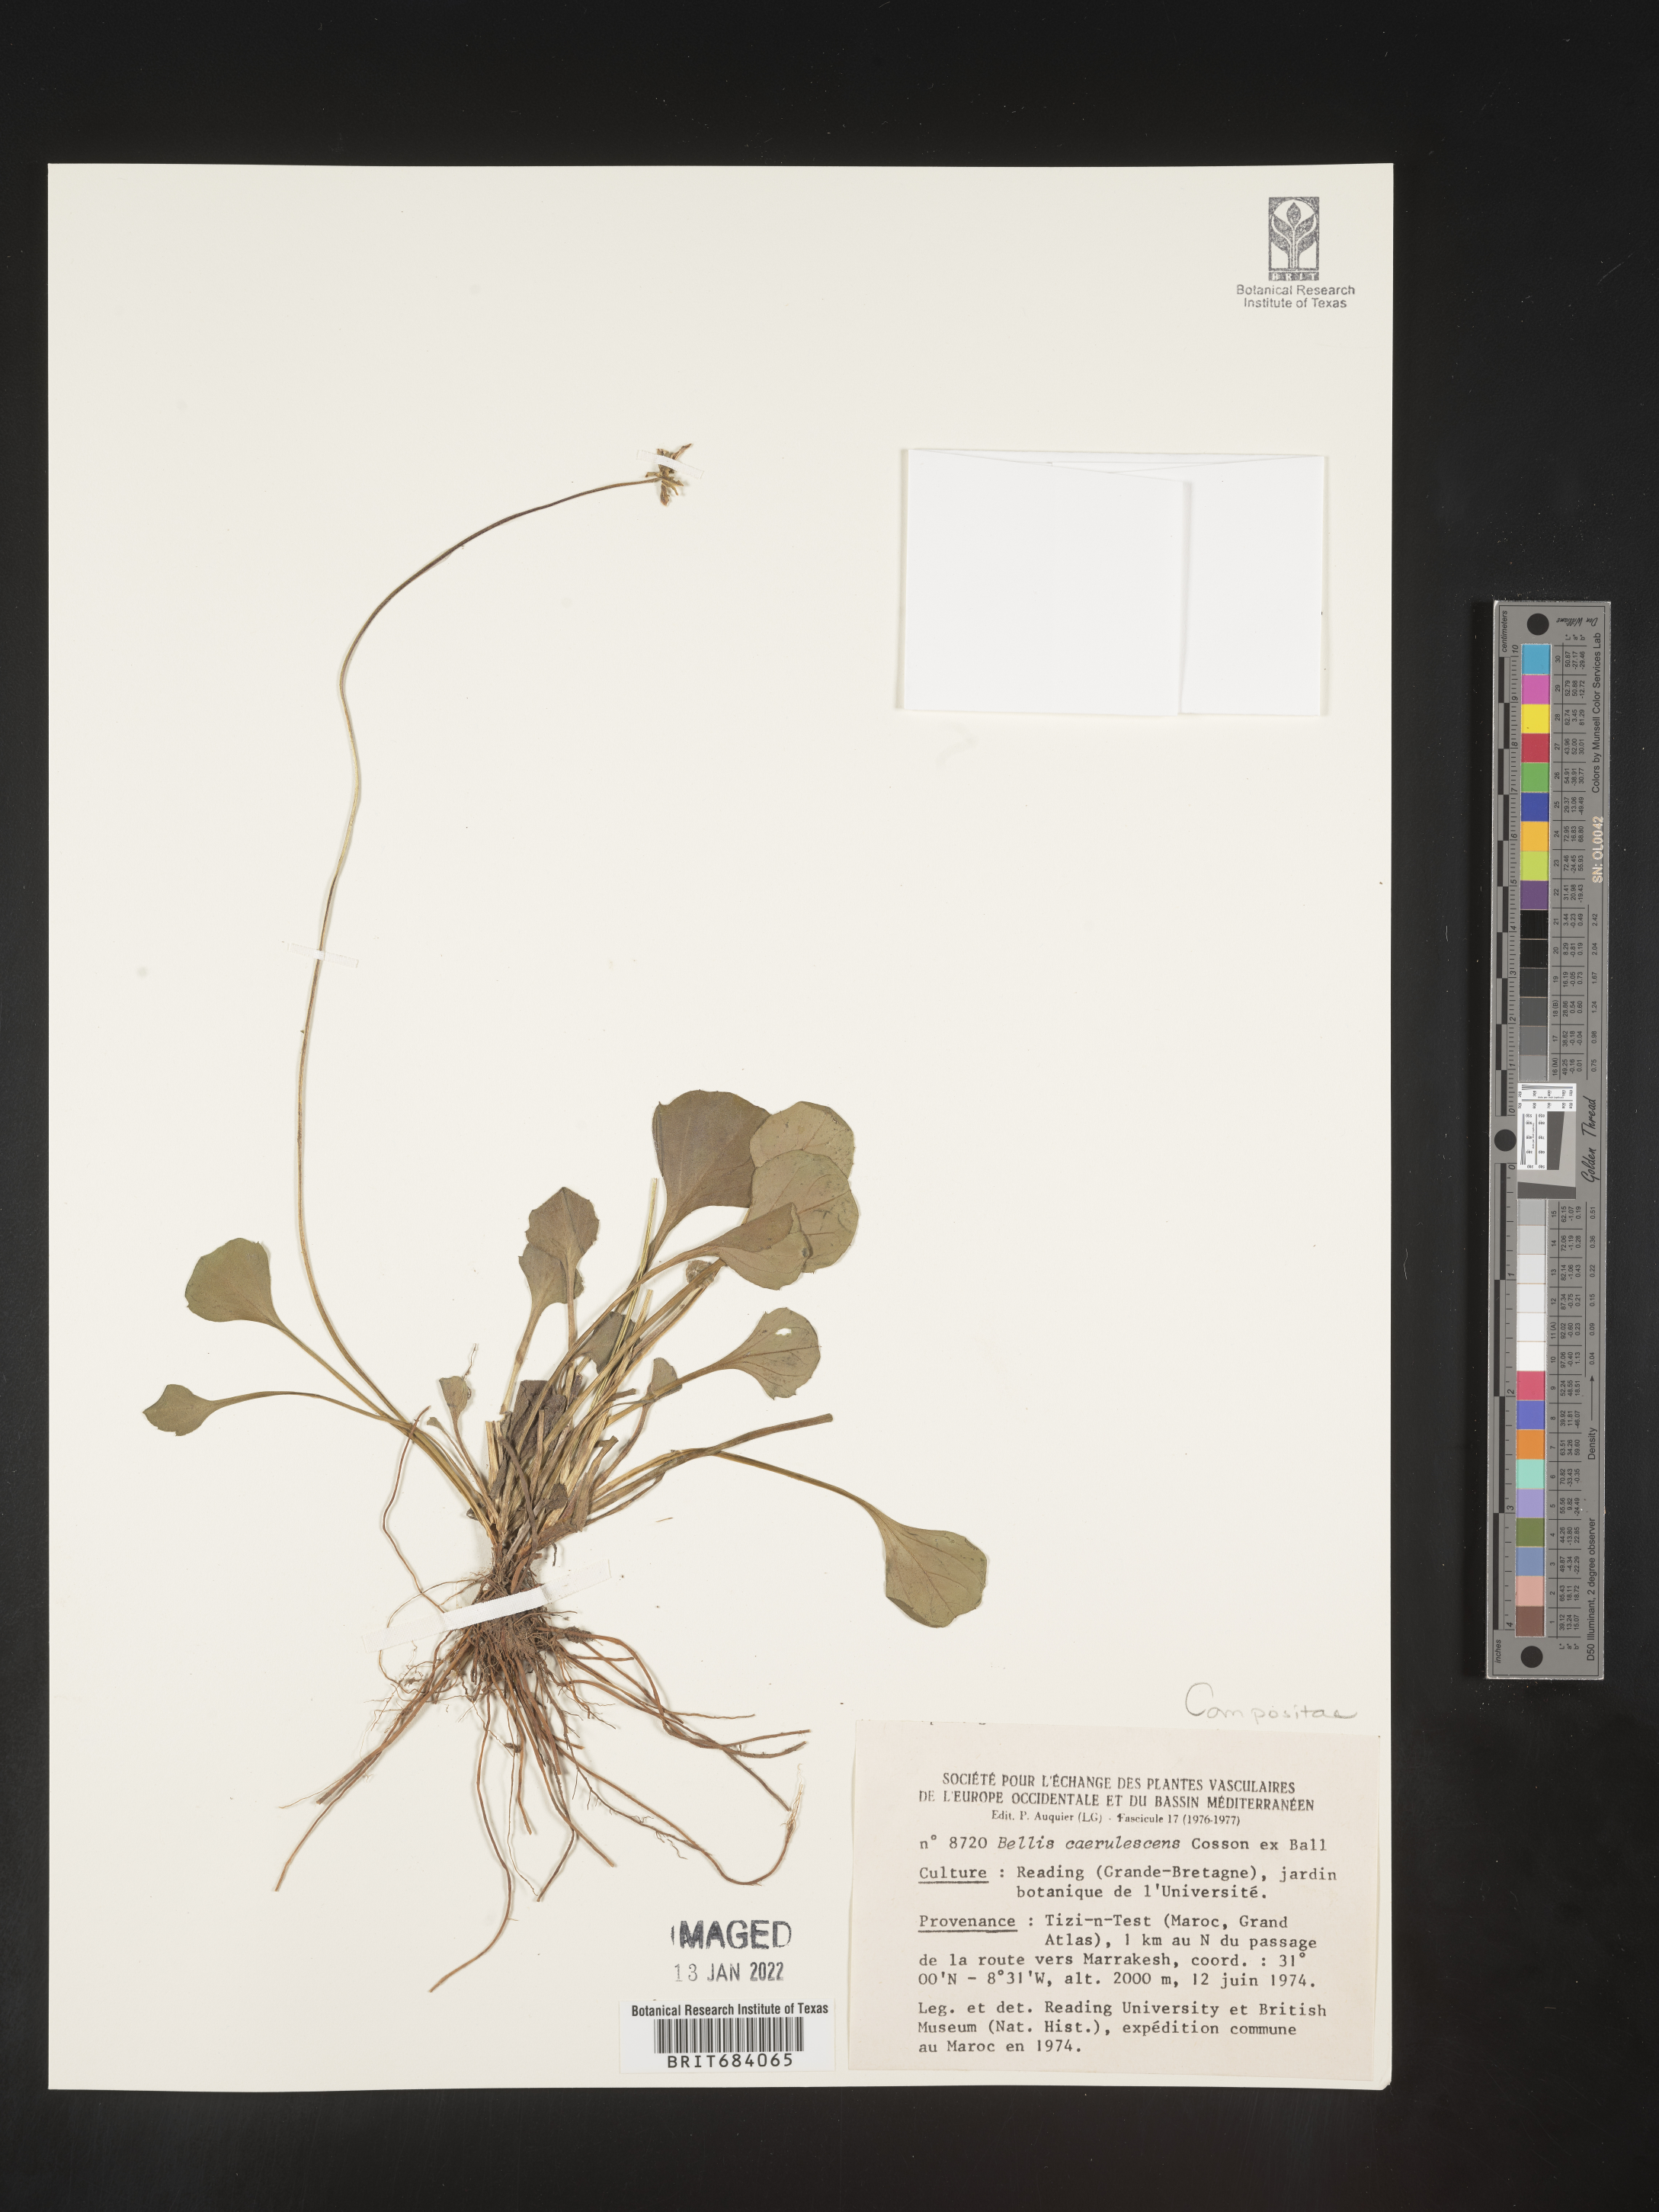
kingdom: Plantae
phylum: Tracheophyta
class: Magnoliopsida
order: Asterales
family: Asteraceae
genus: Bellis
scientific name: Bellis
